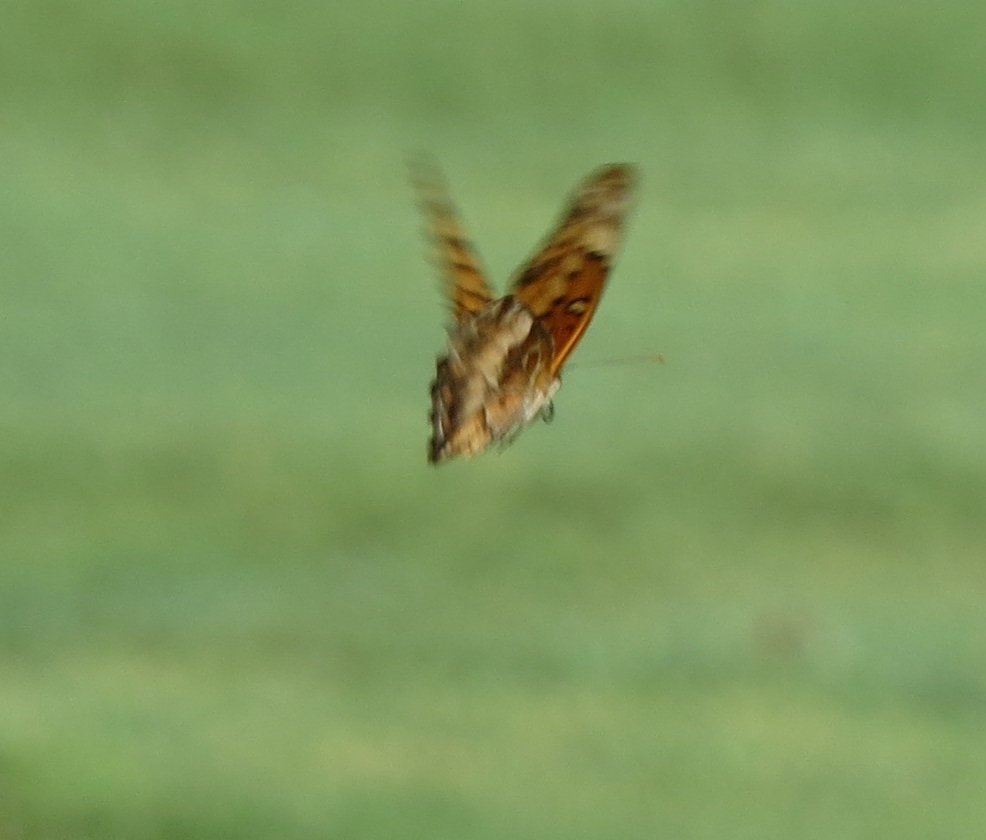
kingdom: Animalia
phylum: Arthropoda
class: Insecta
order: Lepidoptera
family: Nymphalidae
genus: Euptoieta
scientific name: Euptoieta claudia
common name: Variegated Fritillary
